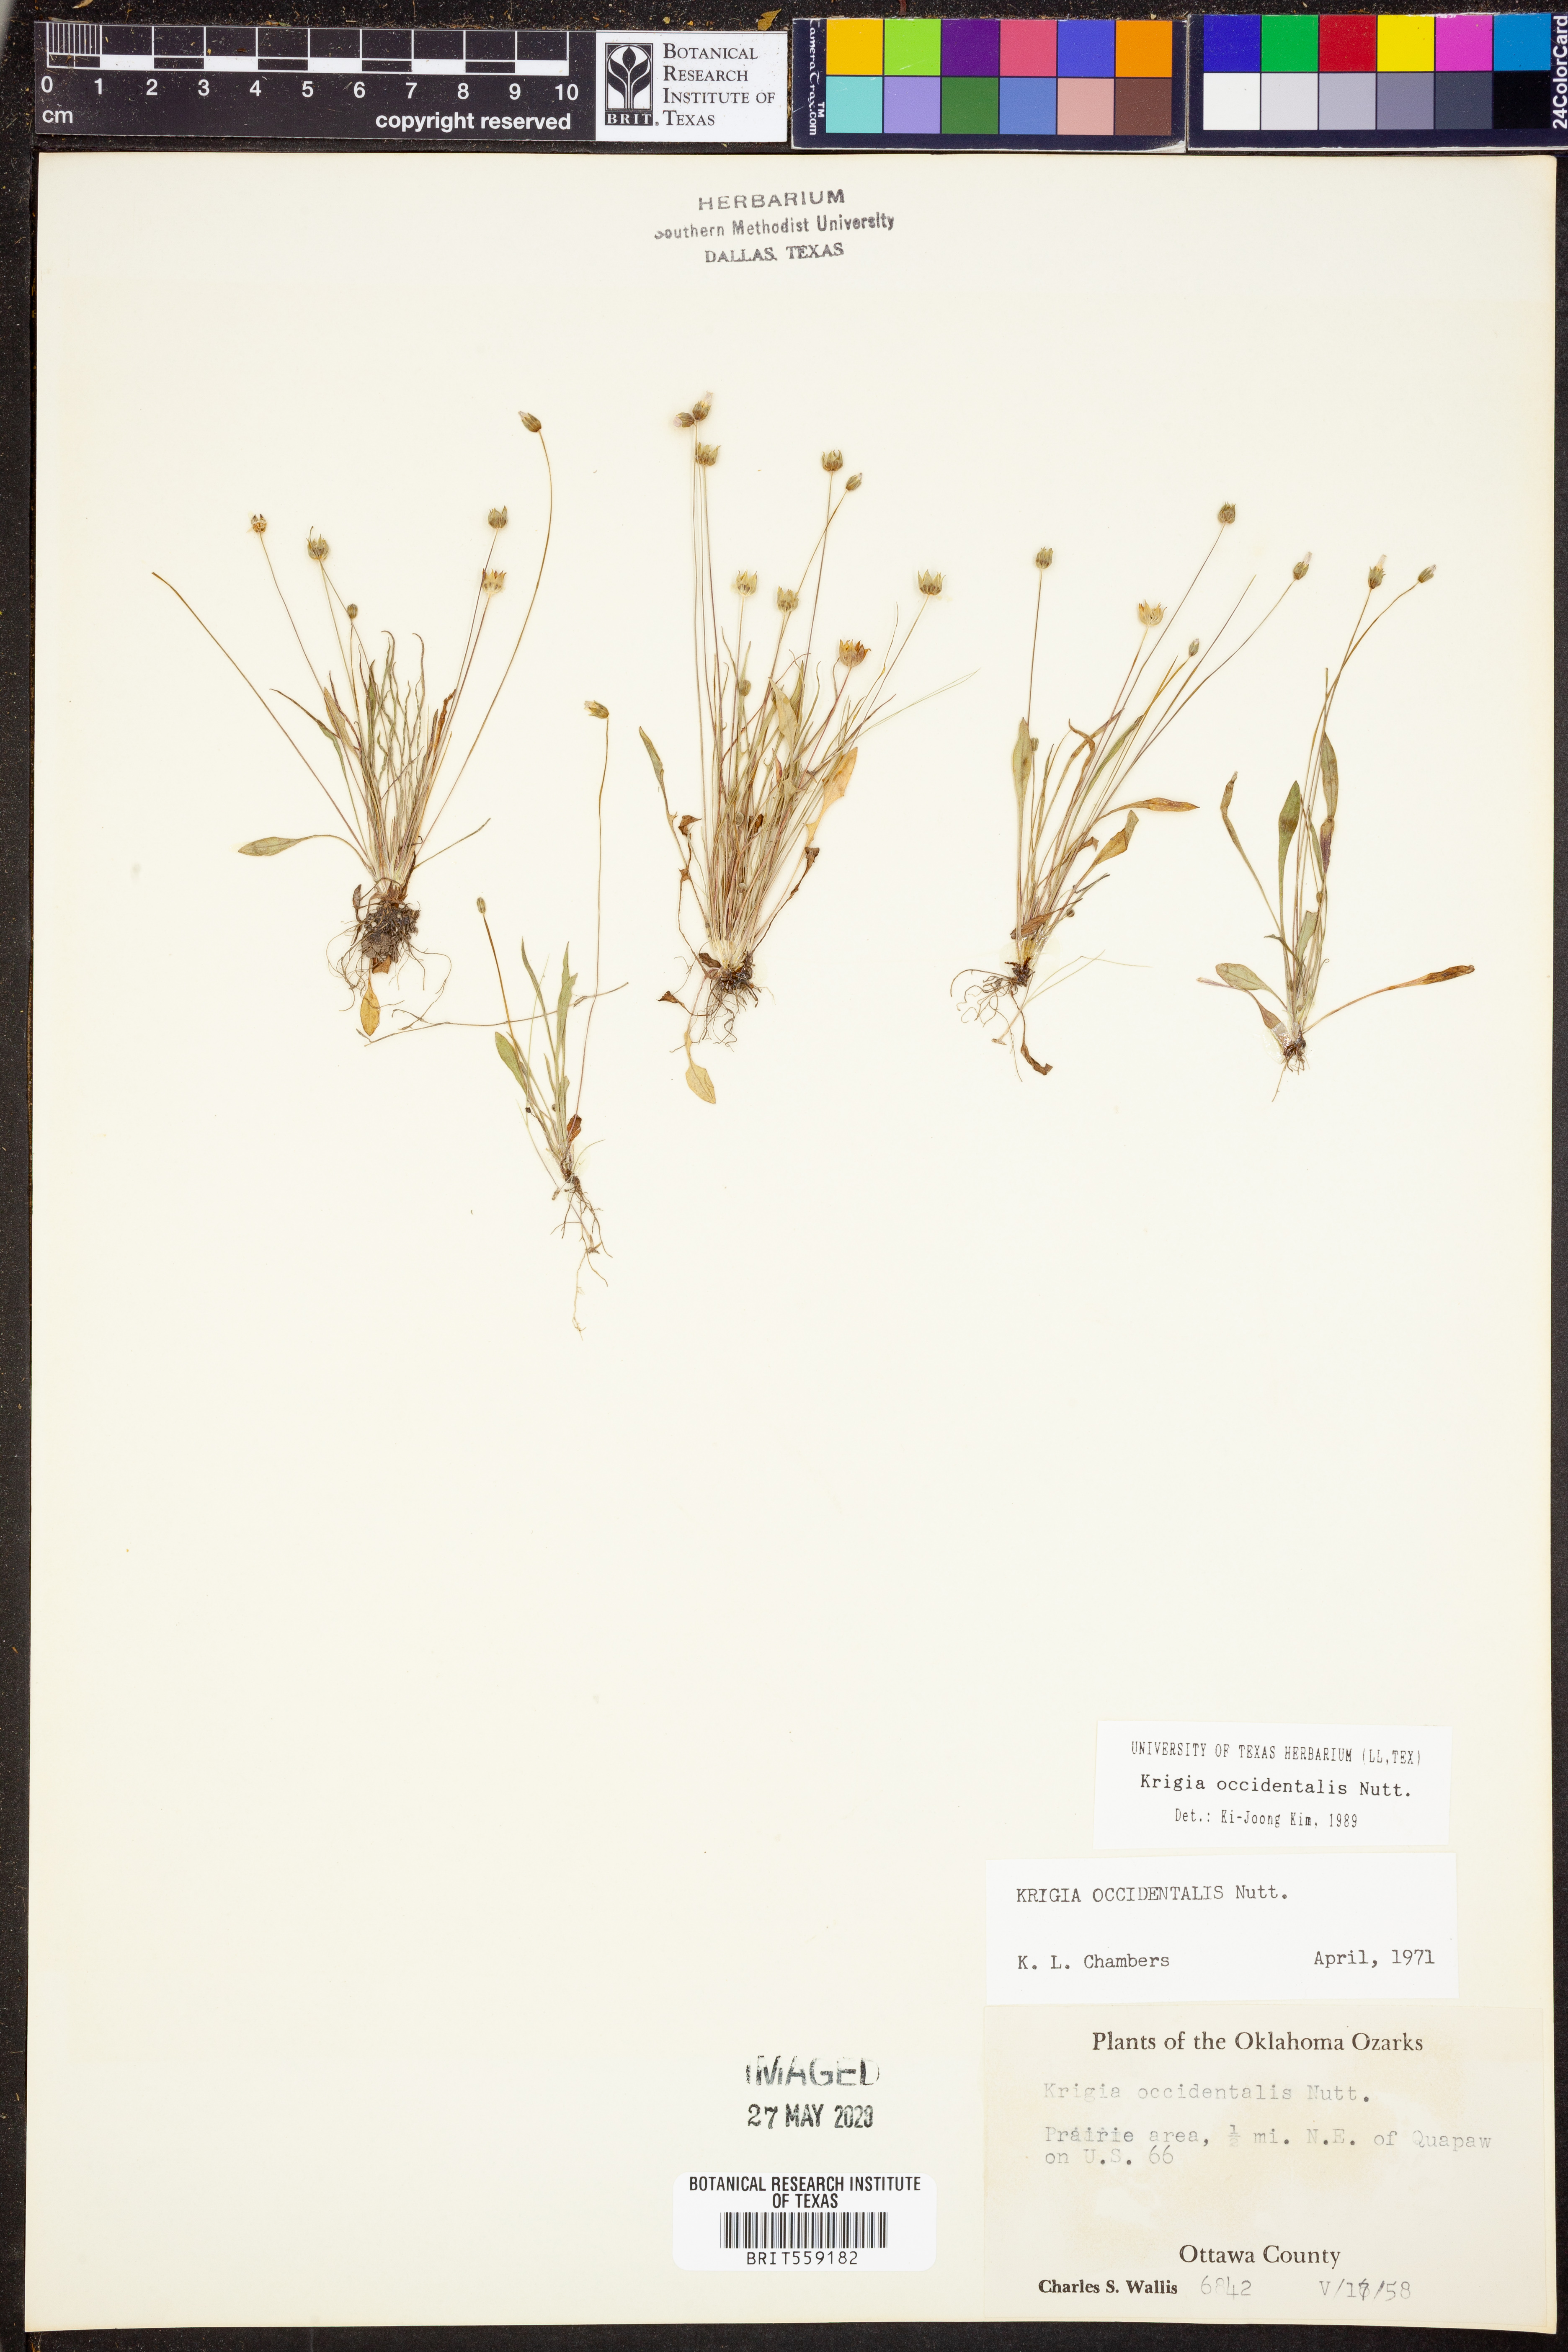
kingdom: Plantae
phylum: Tracheophyta
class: Magnoliopsida
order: Asterales
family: Asteraceae
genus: Krigia
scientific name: Krigia occidentalis
